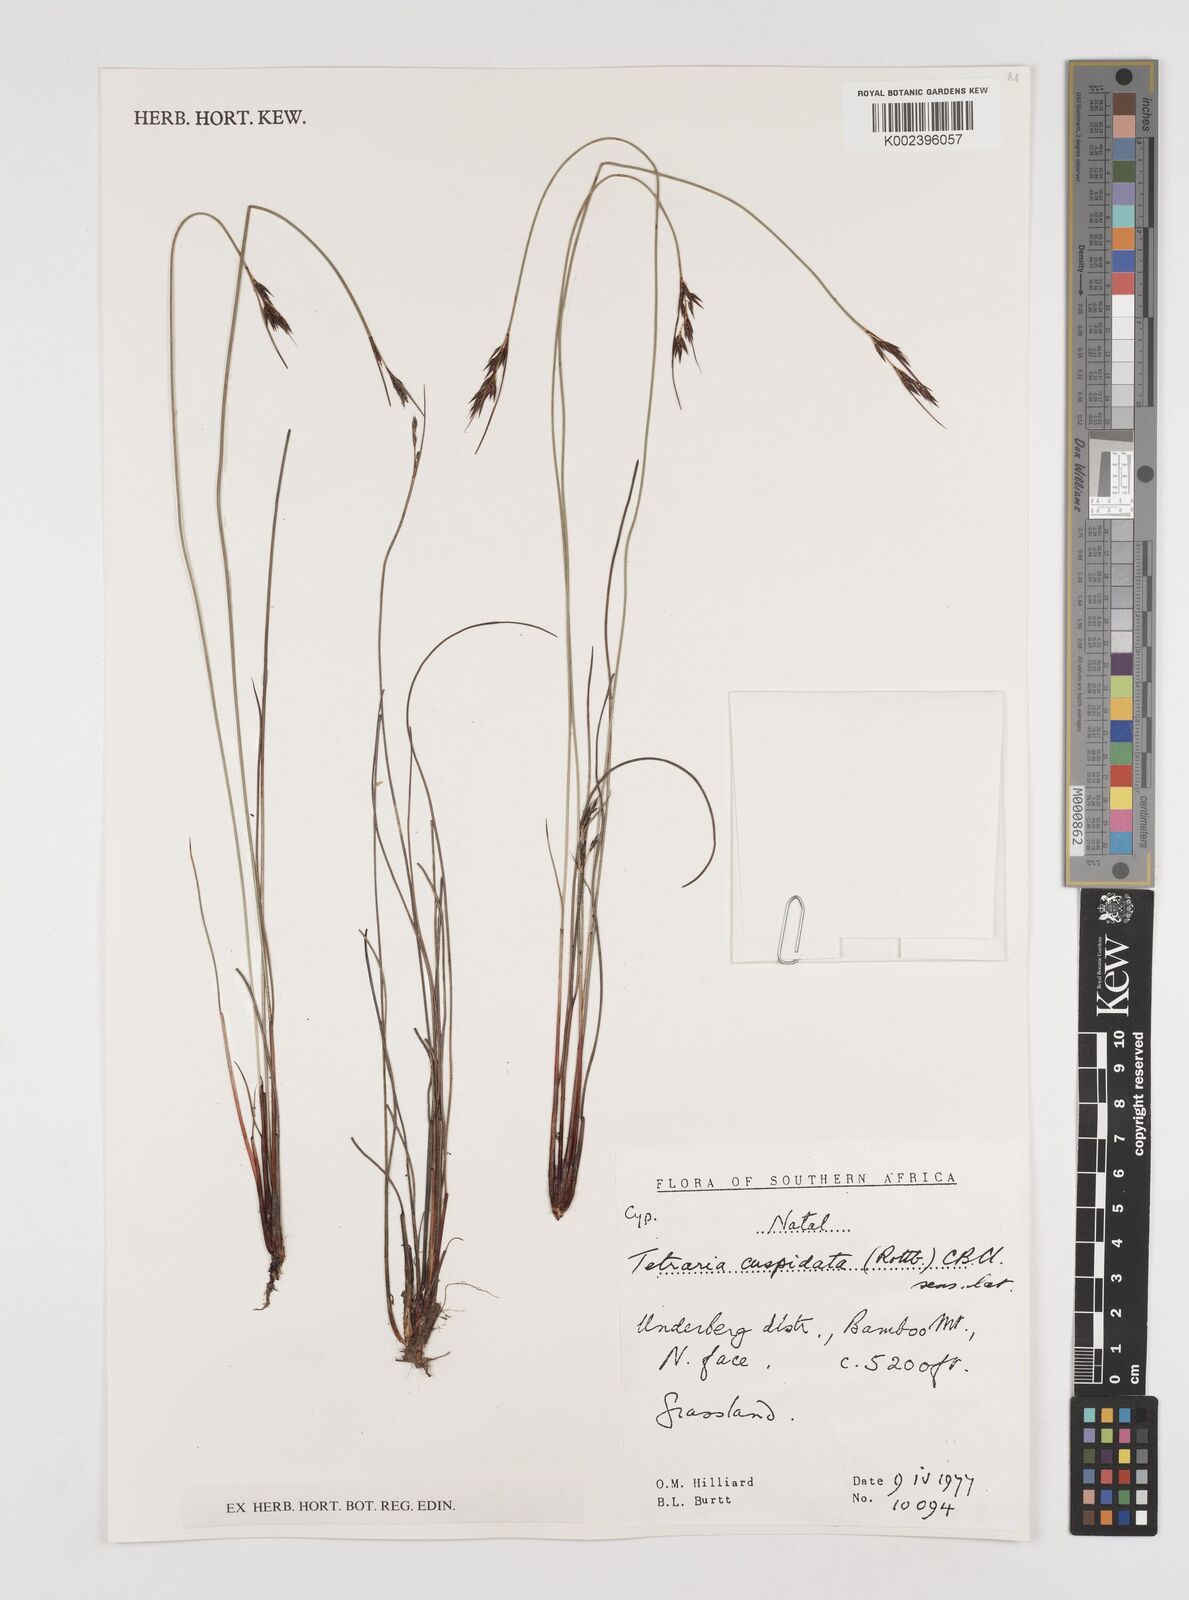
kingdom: Plantae
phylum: Tracheophyta
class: Liliopsida
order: Poales
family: Cyperaceae
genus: Schoenus
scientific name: Schoenus cuspidatus
